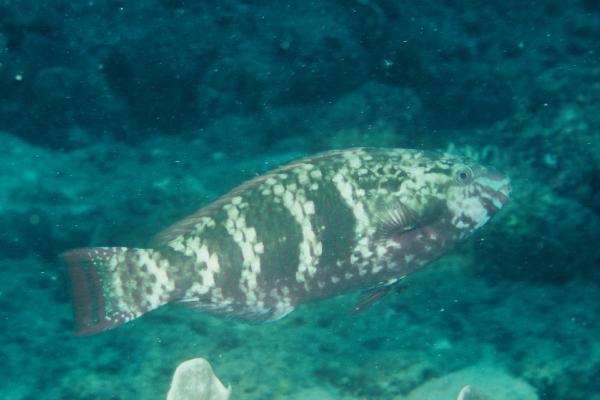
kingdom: Animalia
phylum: Chordata
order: Perciformes
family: Scaridae
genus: Scarus
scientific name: Scarus schlegeli
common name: Schlegel's parrotfish
